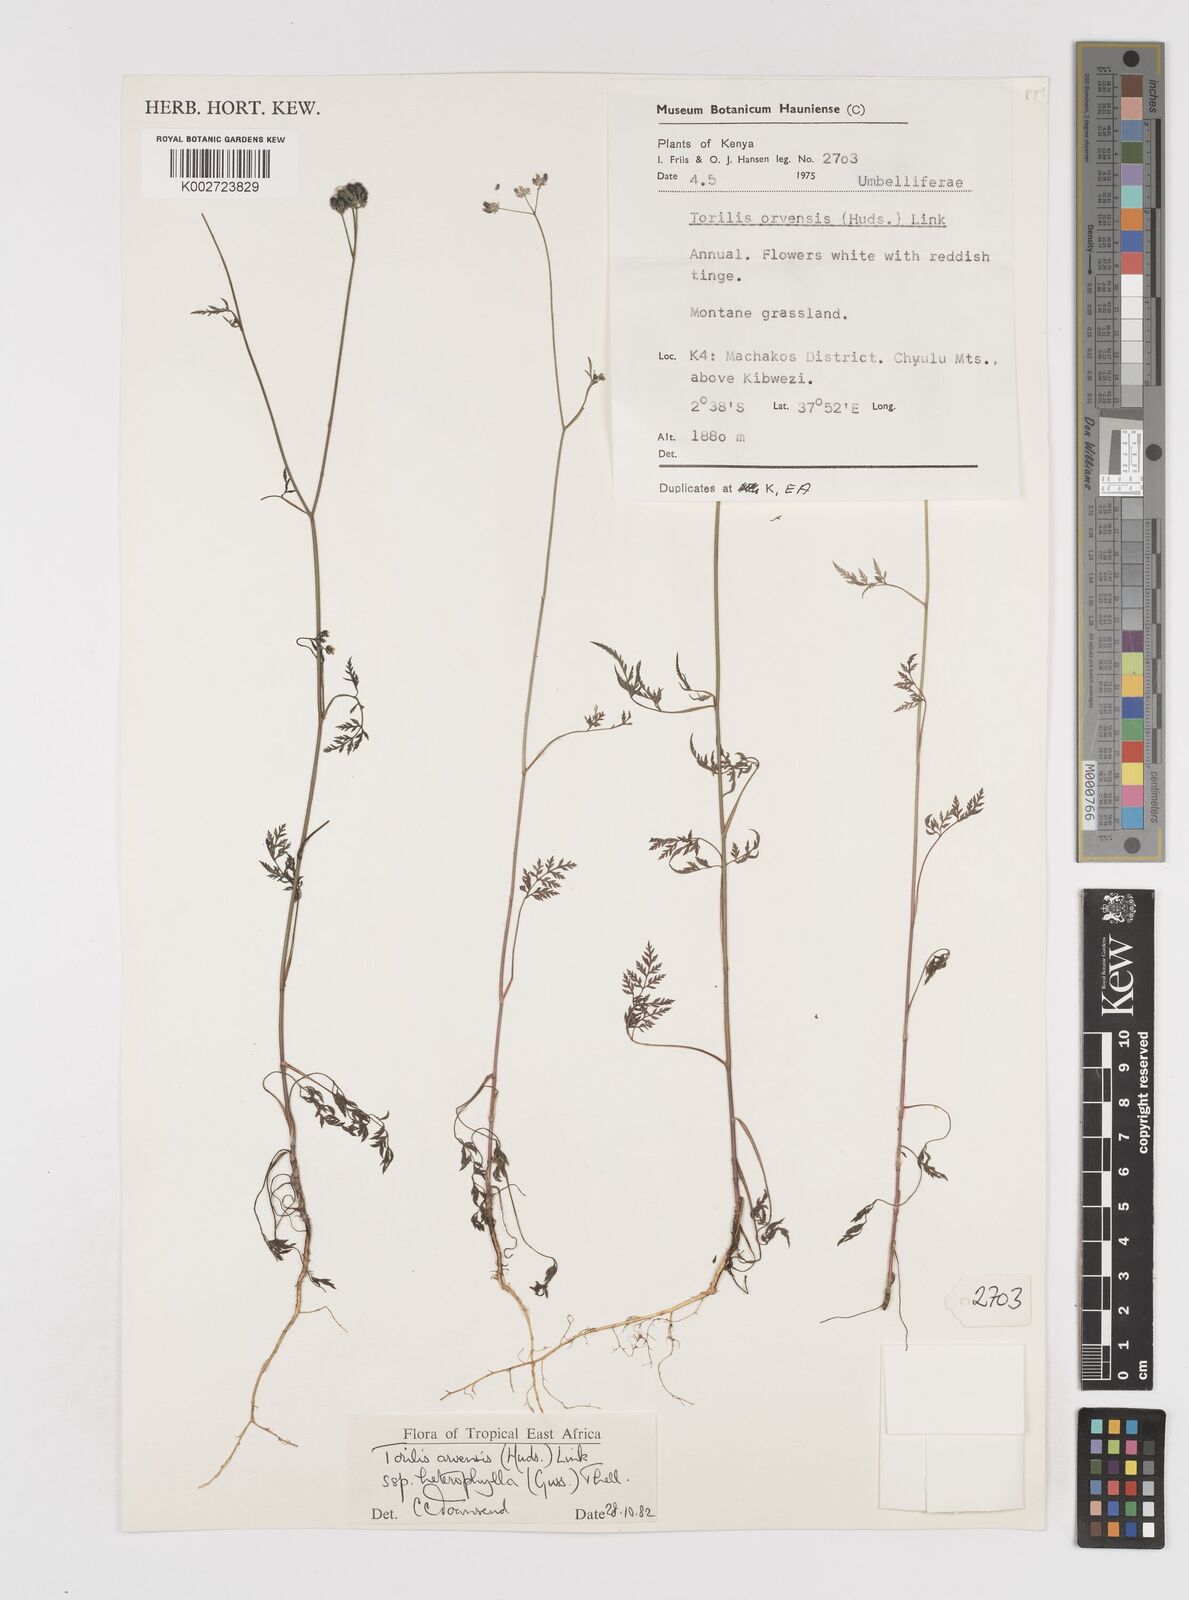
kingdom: Plantae
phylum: Tracheophyta
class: Magnoliopsida
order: Apiales
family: Apiaceae
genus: Torilis
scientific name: Torilis arvensis
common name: Spreading hedge-parsley
